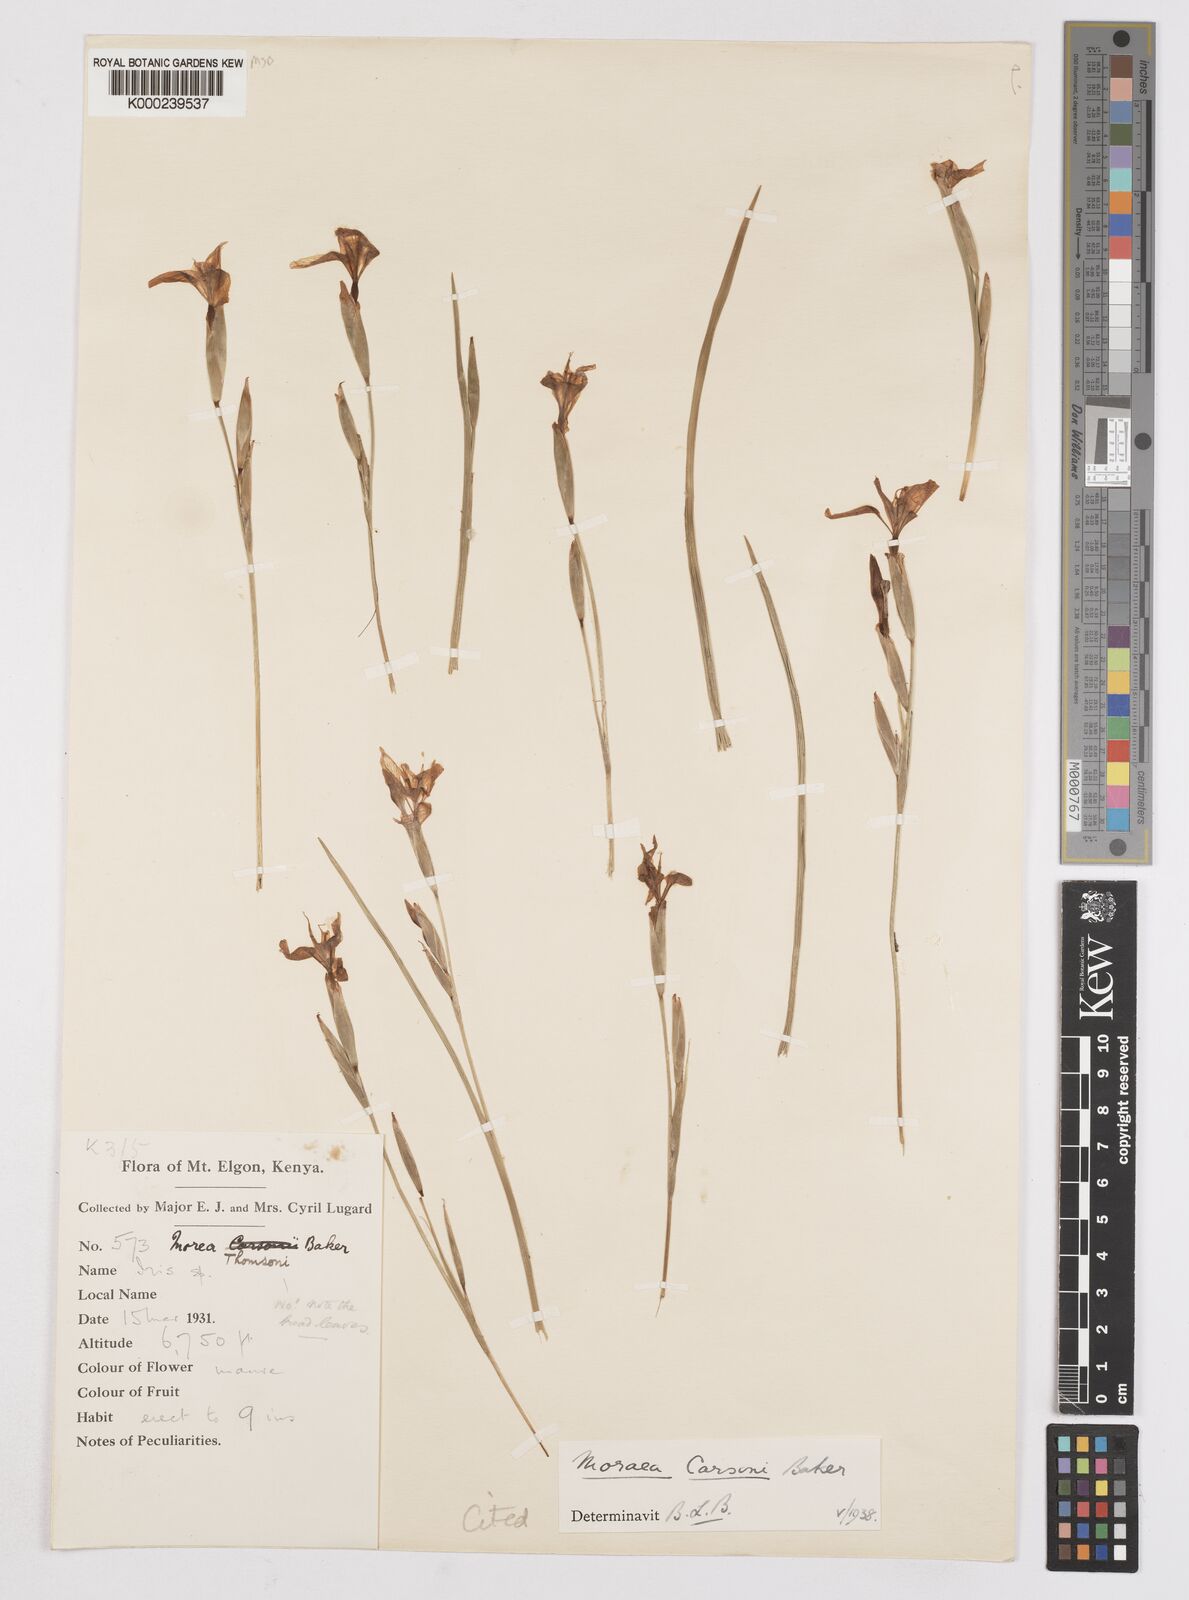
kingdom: Plantae
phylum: Tracheophyta
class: Liliopsida
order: Asparagales
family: Iridaceae
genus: Moraea
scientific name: Moraea
